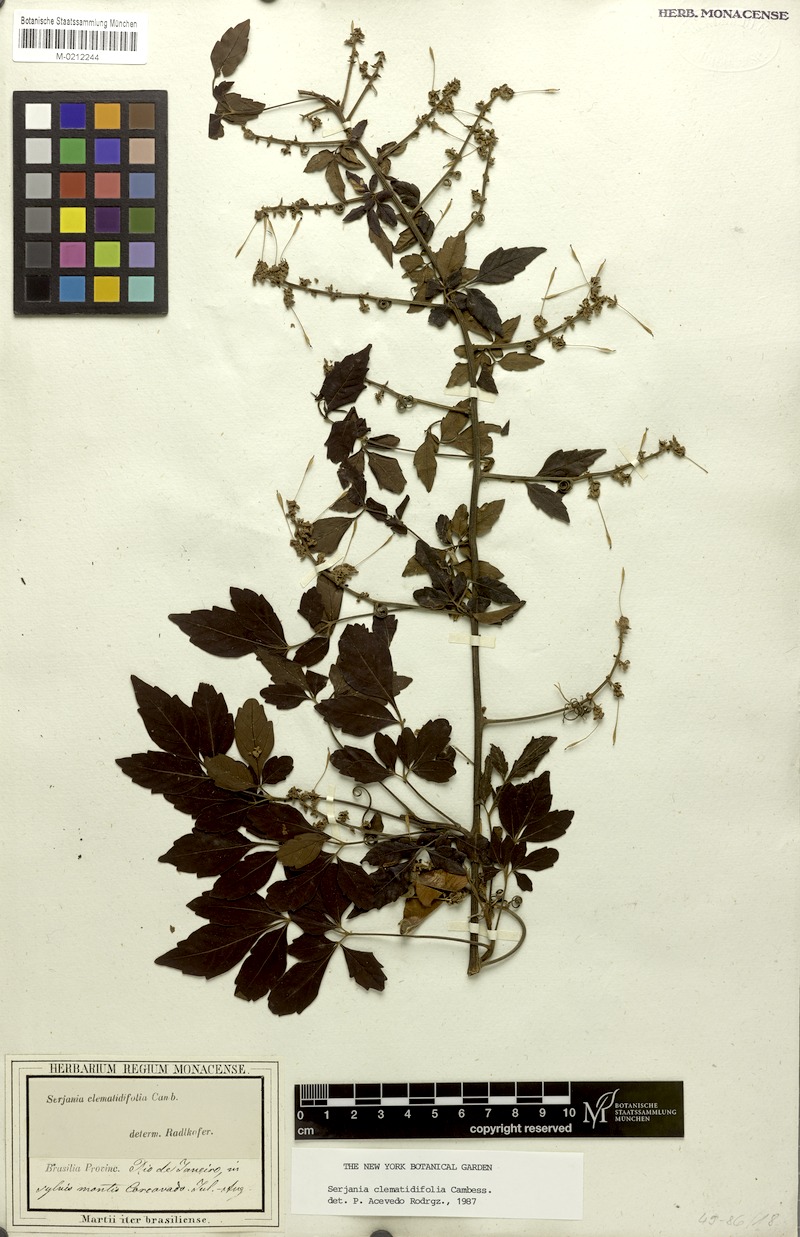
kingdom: Plantae
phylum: Tracheophyta
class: Magnoliopsida
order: Sapindales
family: Sapindaceae
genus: Serjania
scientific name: Serjania clematidifolia
